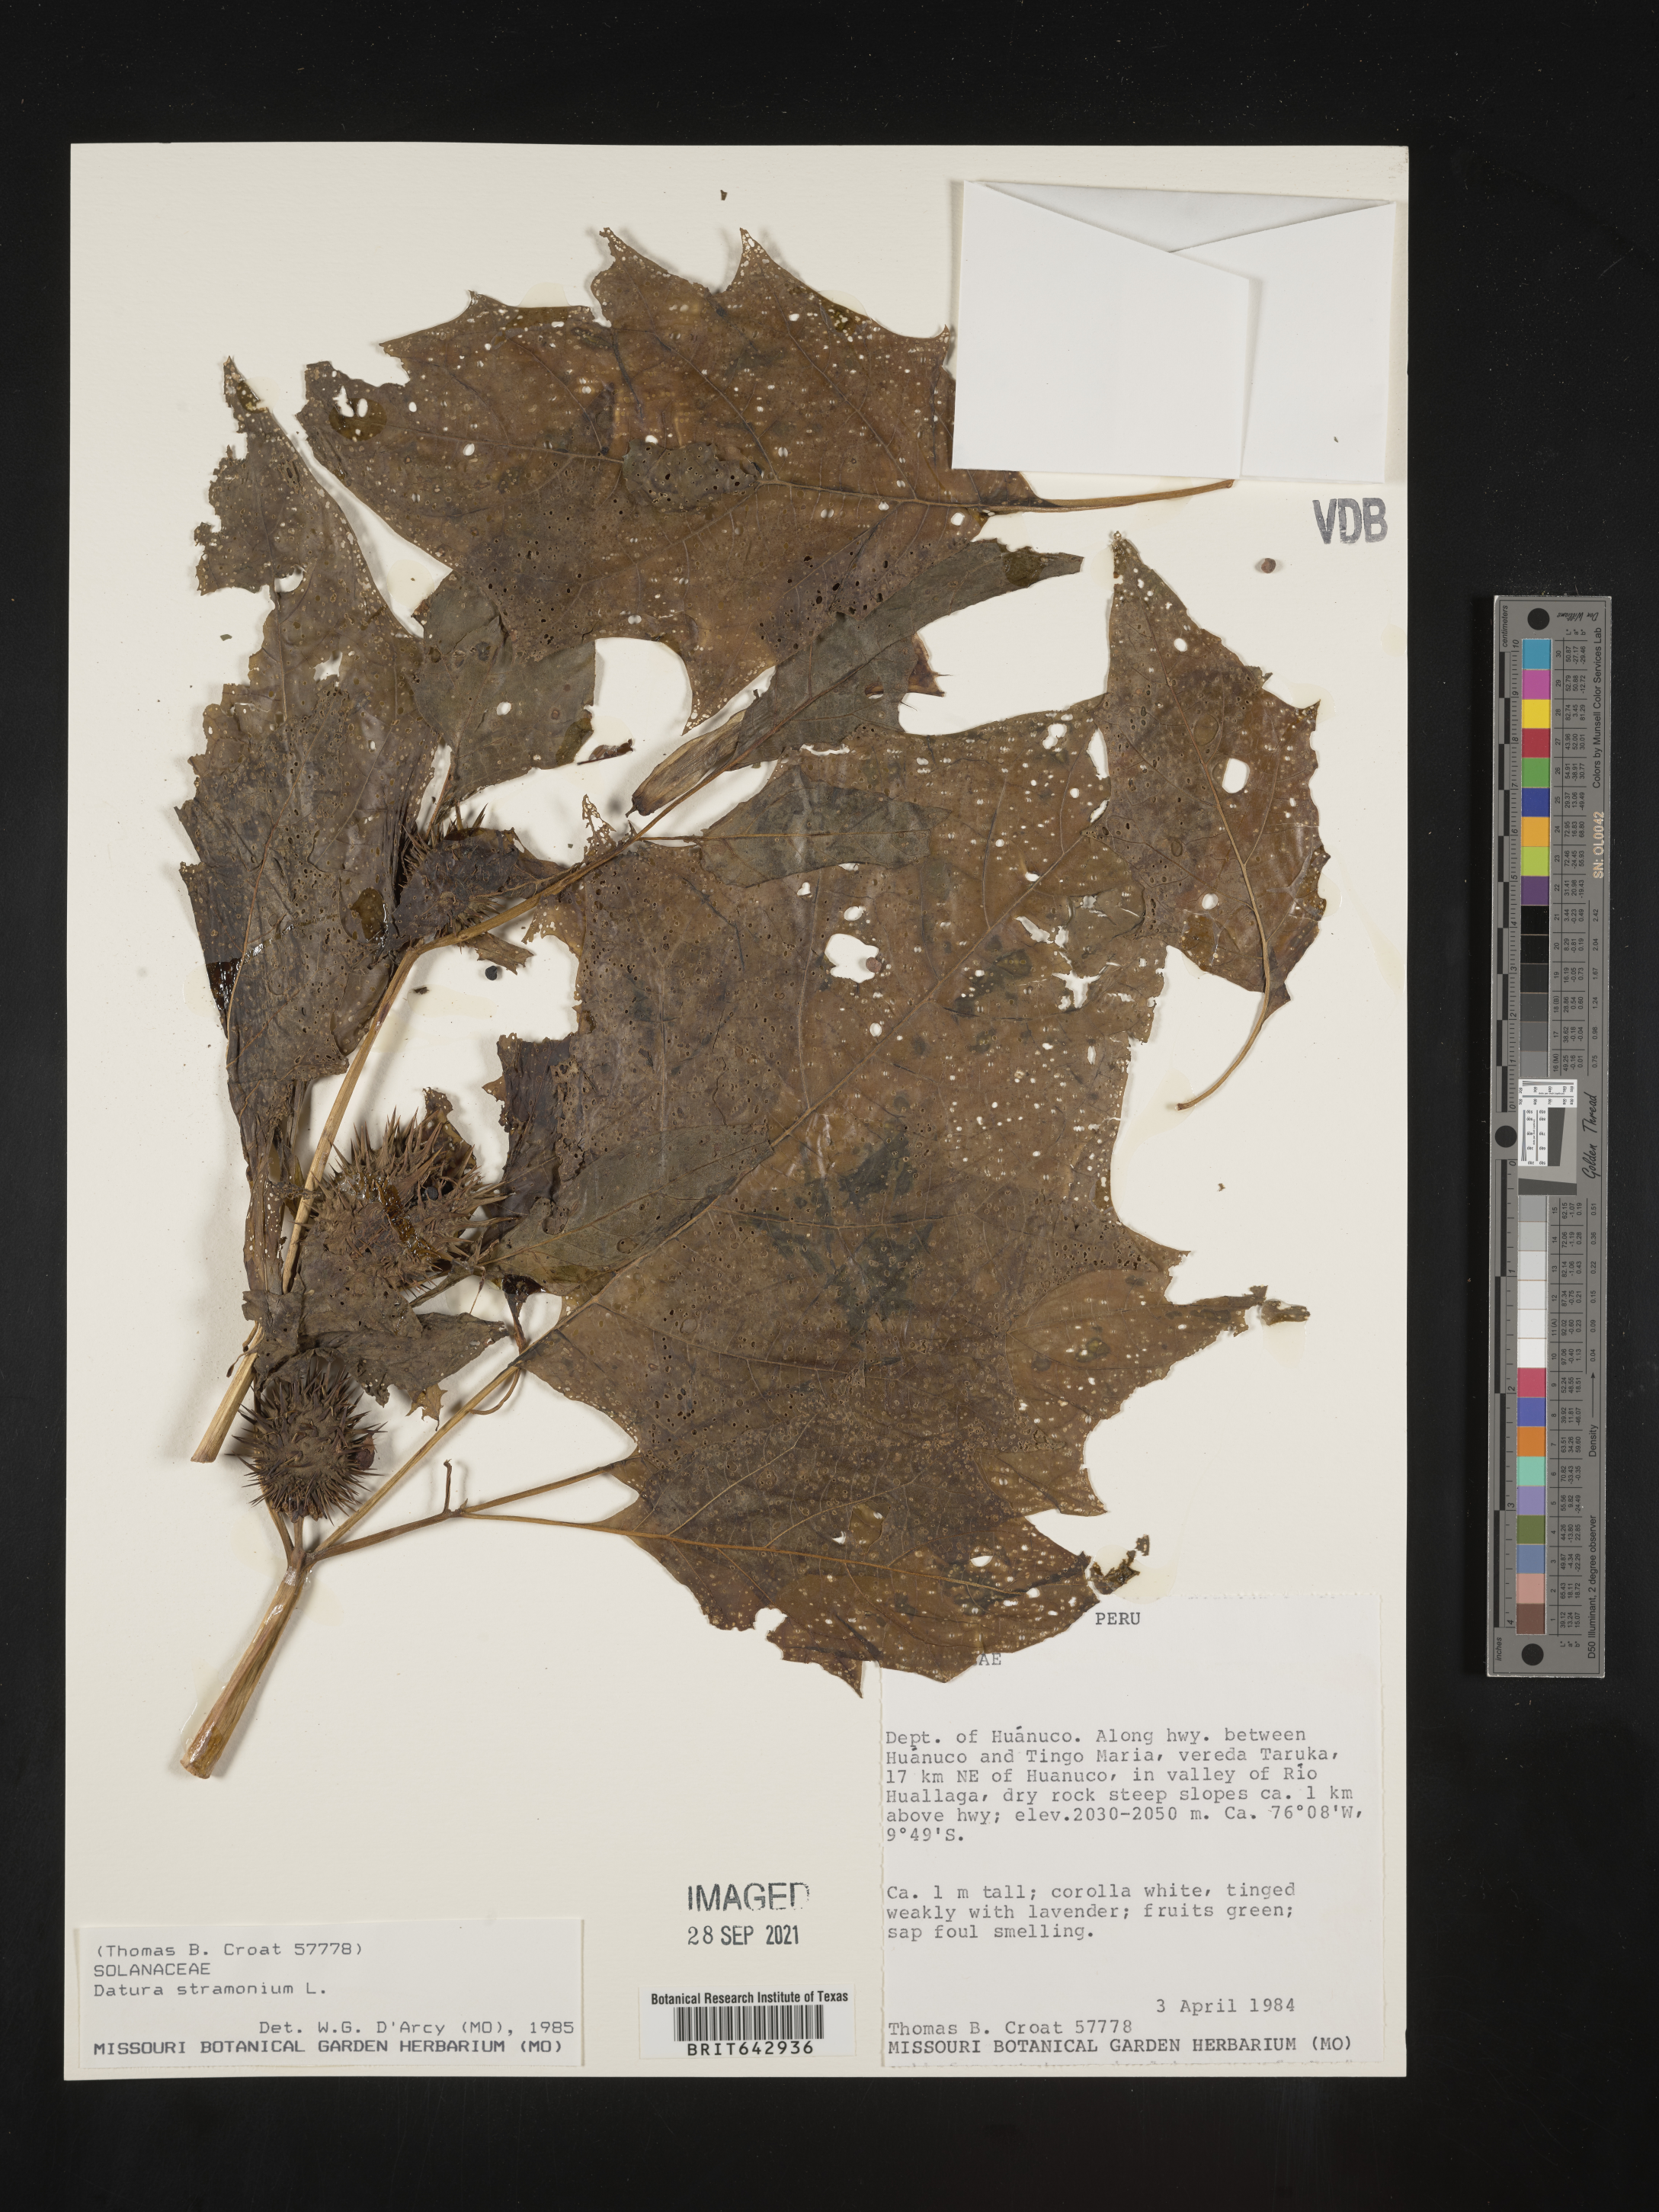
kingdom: Plantae
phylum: Tracheophyta
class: Magnoliopsida
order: Solanales
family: Solanaceae
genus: Datura
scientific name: Datura
